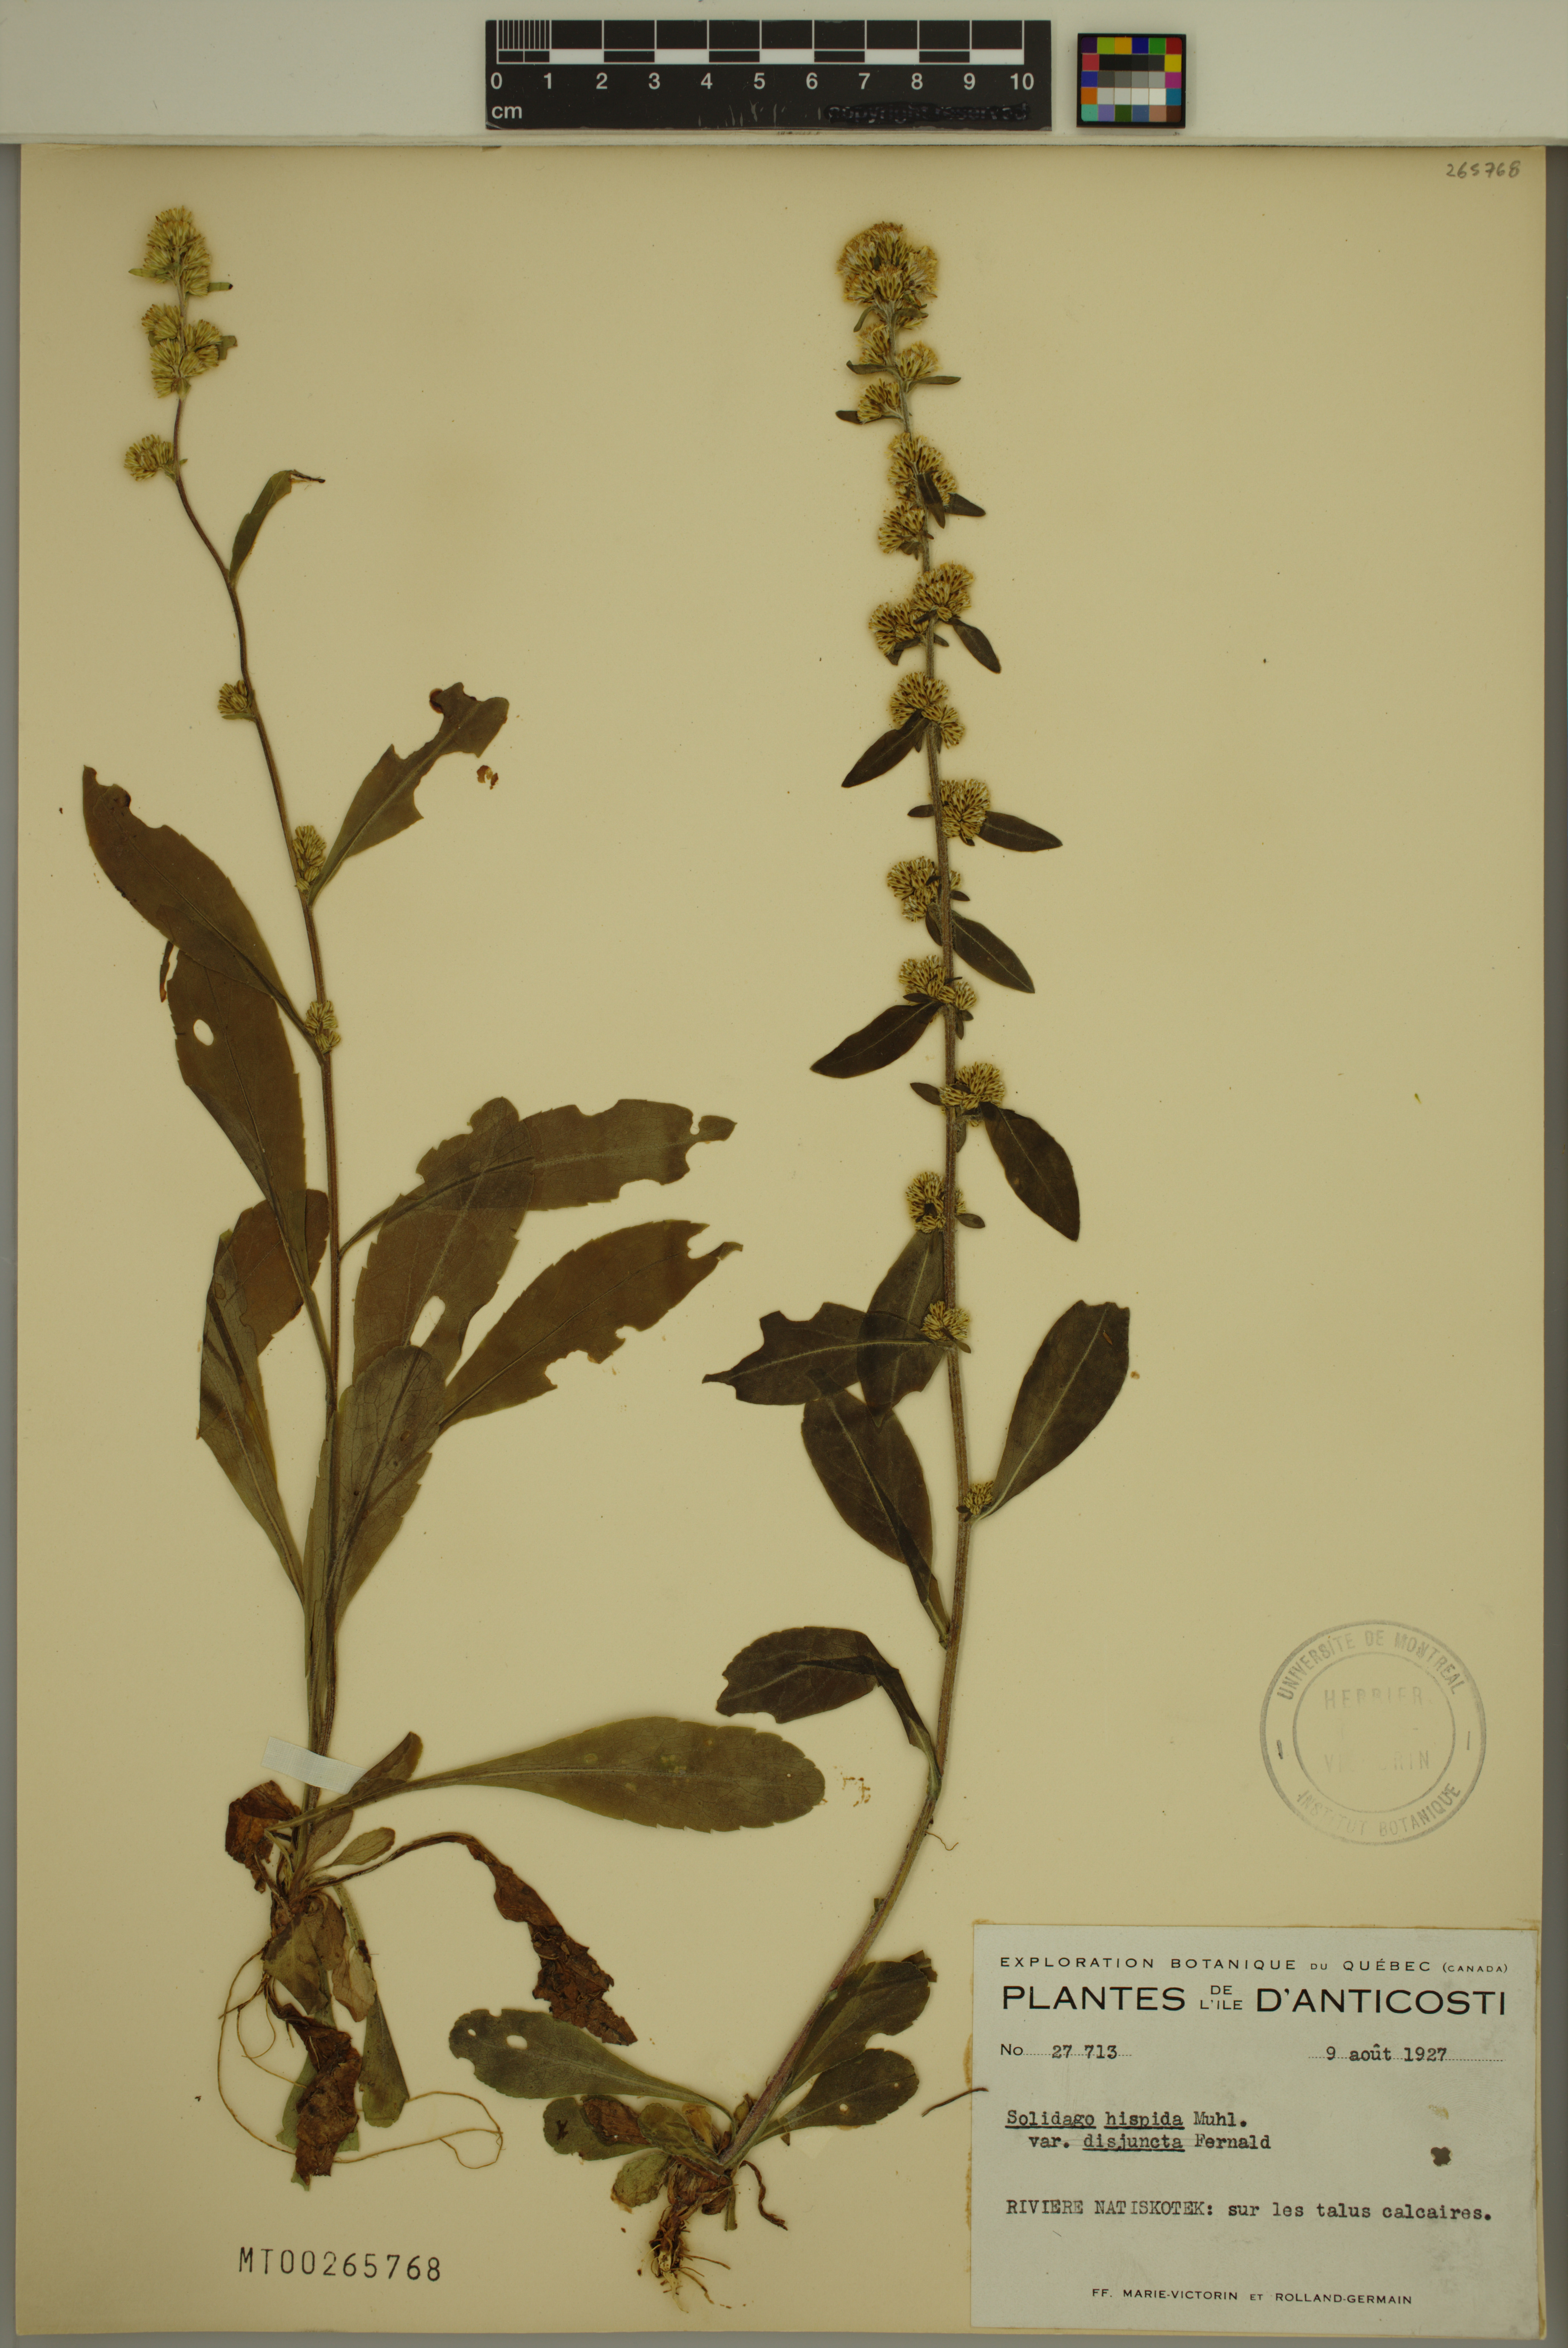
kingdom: Plantae
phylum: Tracheophyta
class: Magnoliopsida
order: Asterales
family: Asteraceae
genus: Solidago
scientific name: Solidago hispida
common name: Hairy goldenrod
